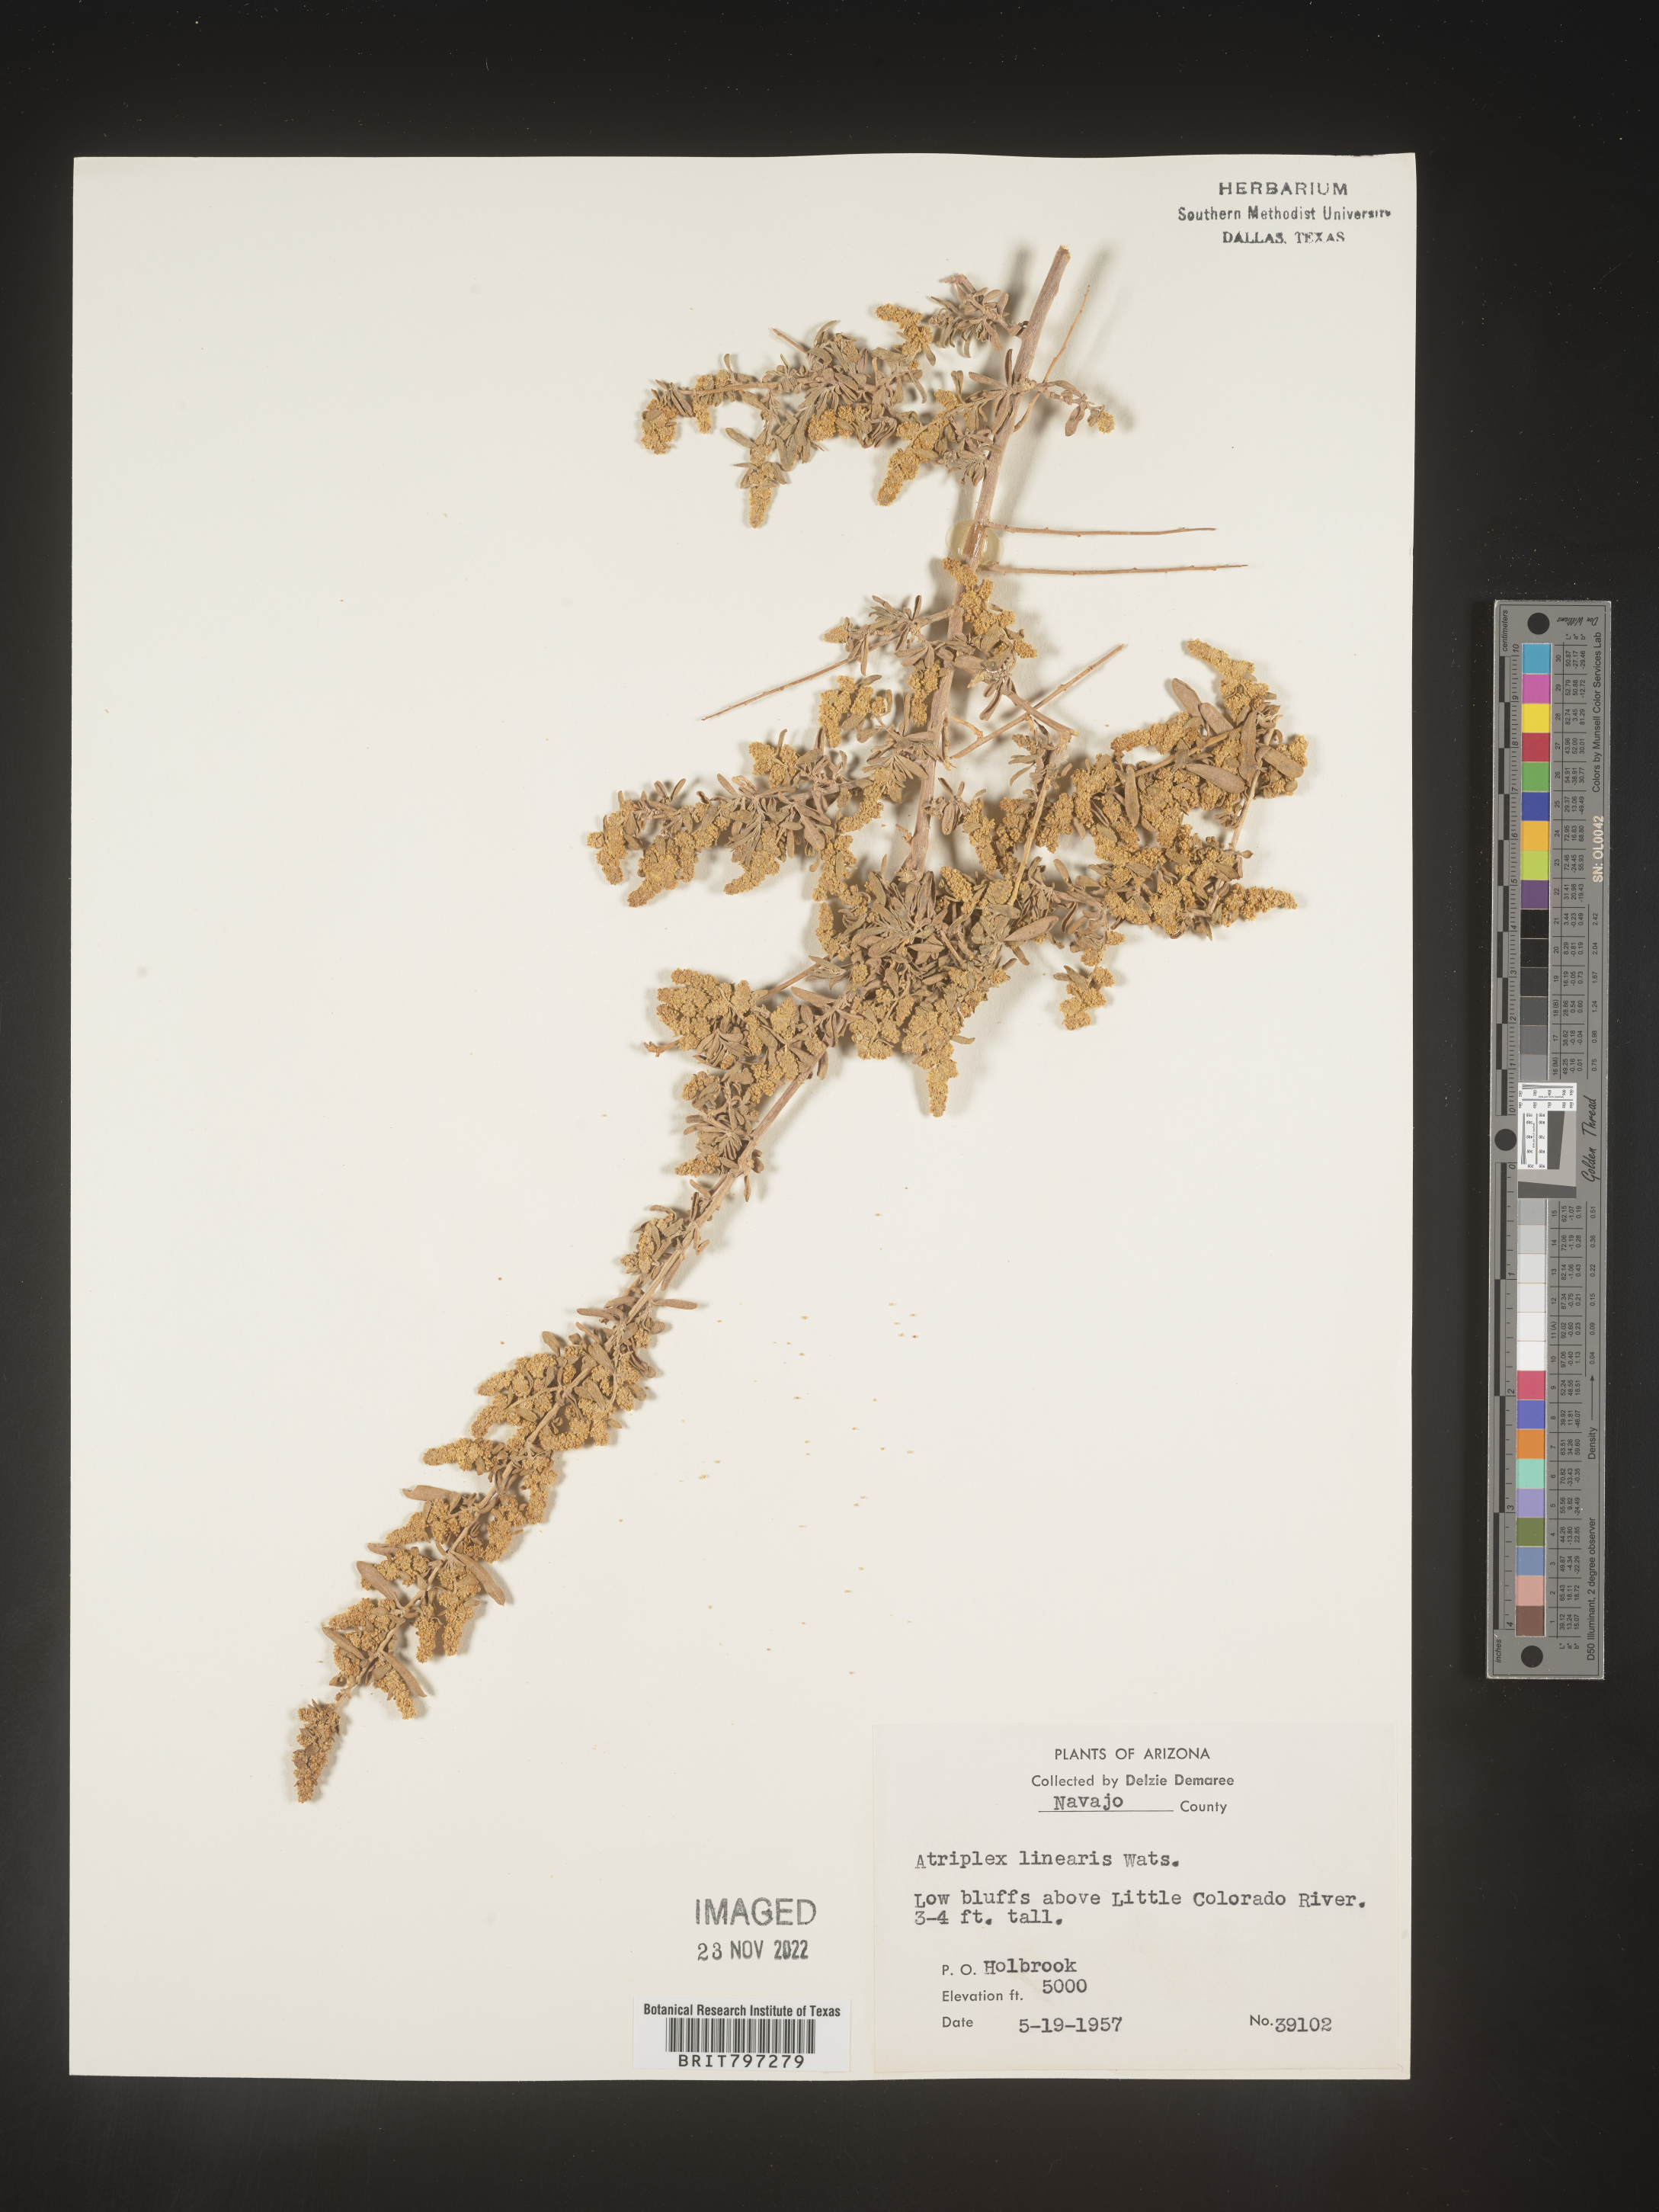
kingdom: Plantae
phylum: Tracheophyta
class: Magnoliopsida
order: Caryophyllales
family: Amaranthaceae
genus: Atriplex
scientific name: Atriplex
